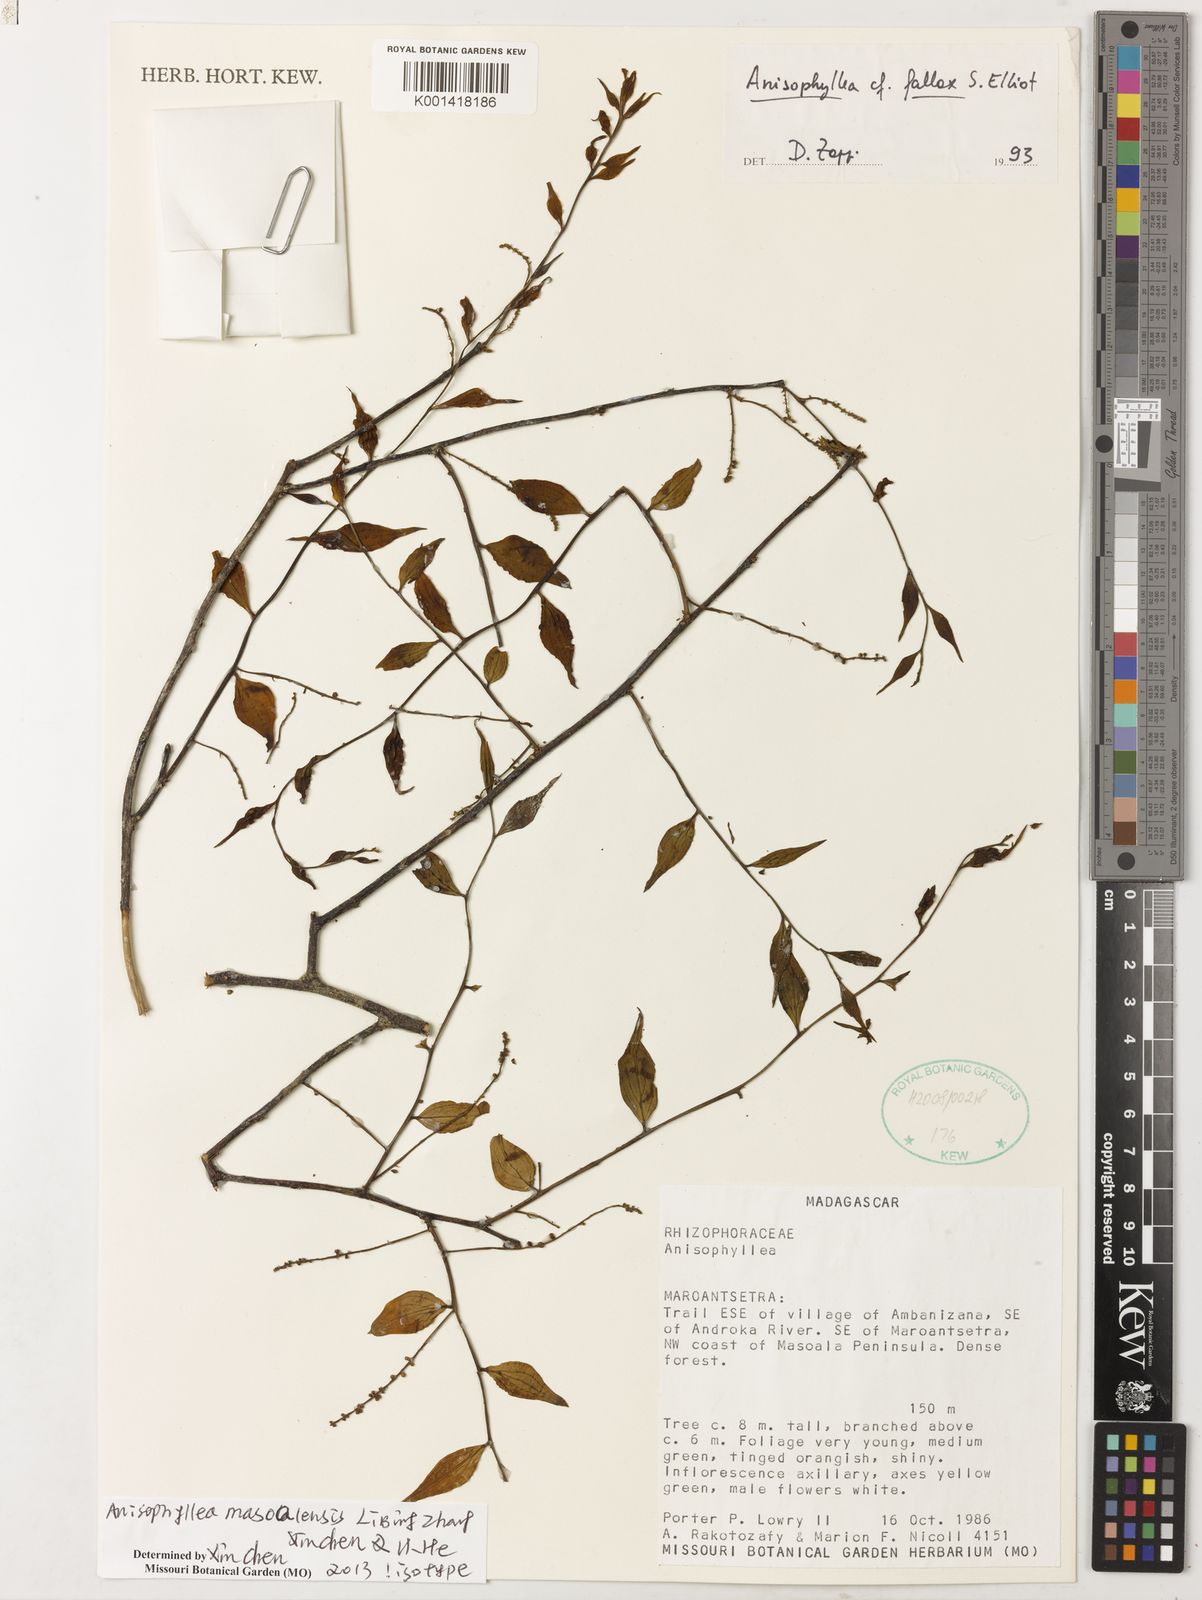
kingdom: Plantae
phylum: Tracheophyta
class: Magnoliopsida
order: Cucurbitales
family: Anisophylleaceae
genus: Anisophyllea
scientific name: Anisophyllea
